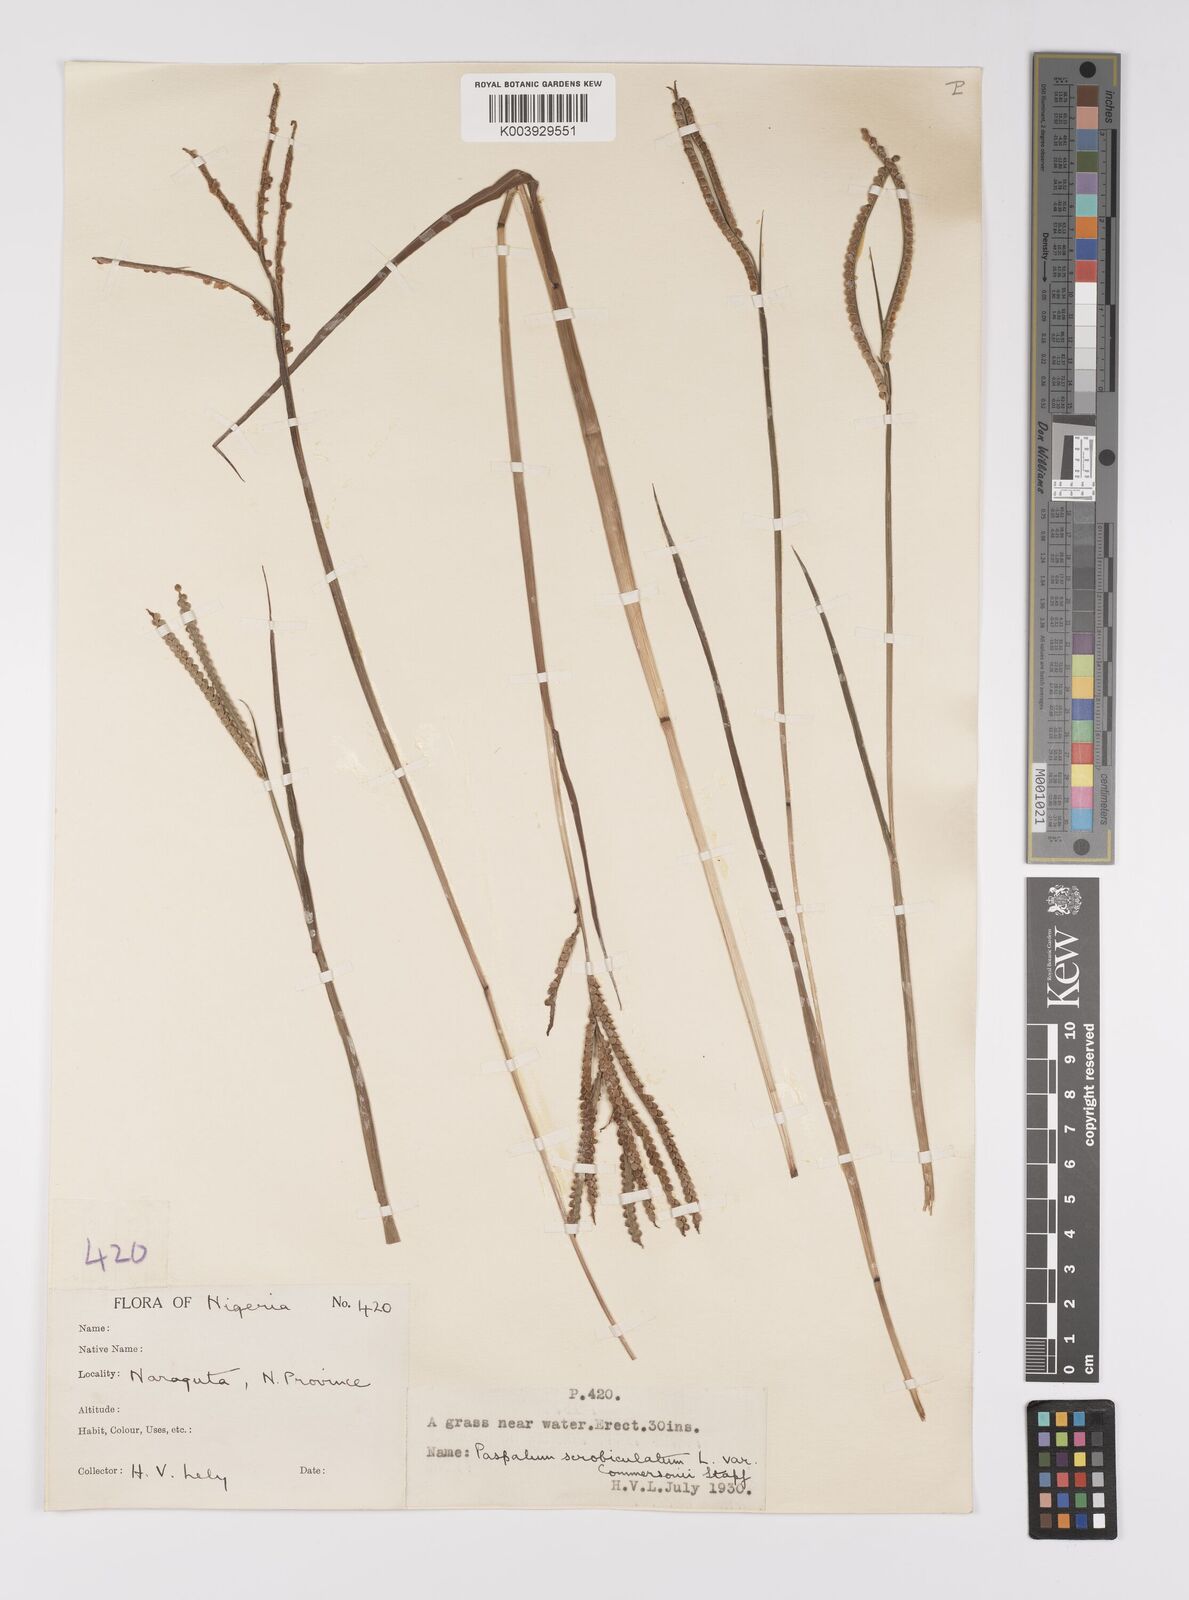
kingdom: Plantae
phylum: Tracheophyta
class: Liliopsida
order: Poales
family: Poaceae
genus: Paspalum
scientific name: Paspalum scrobiculatum
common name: Kodo millet
